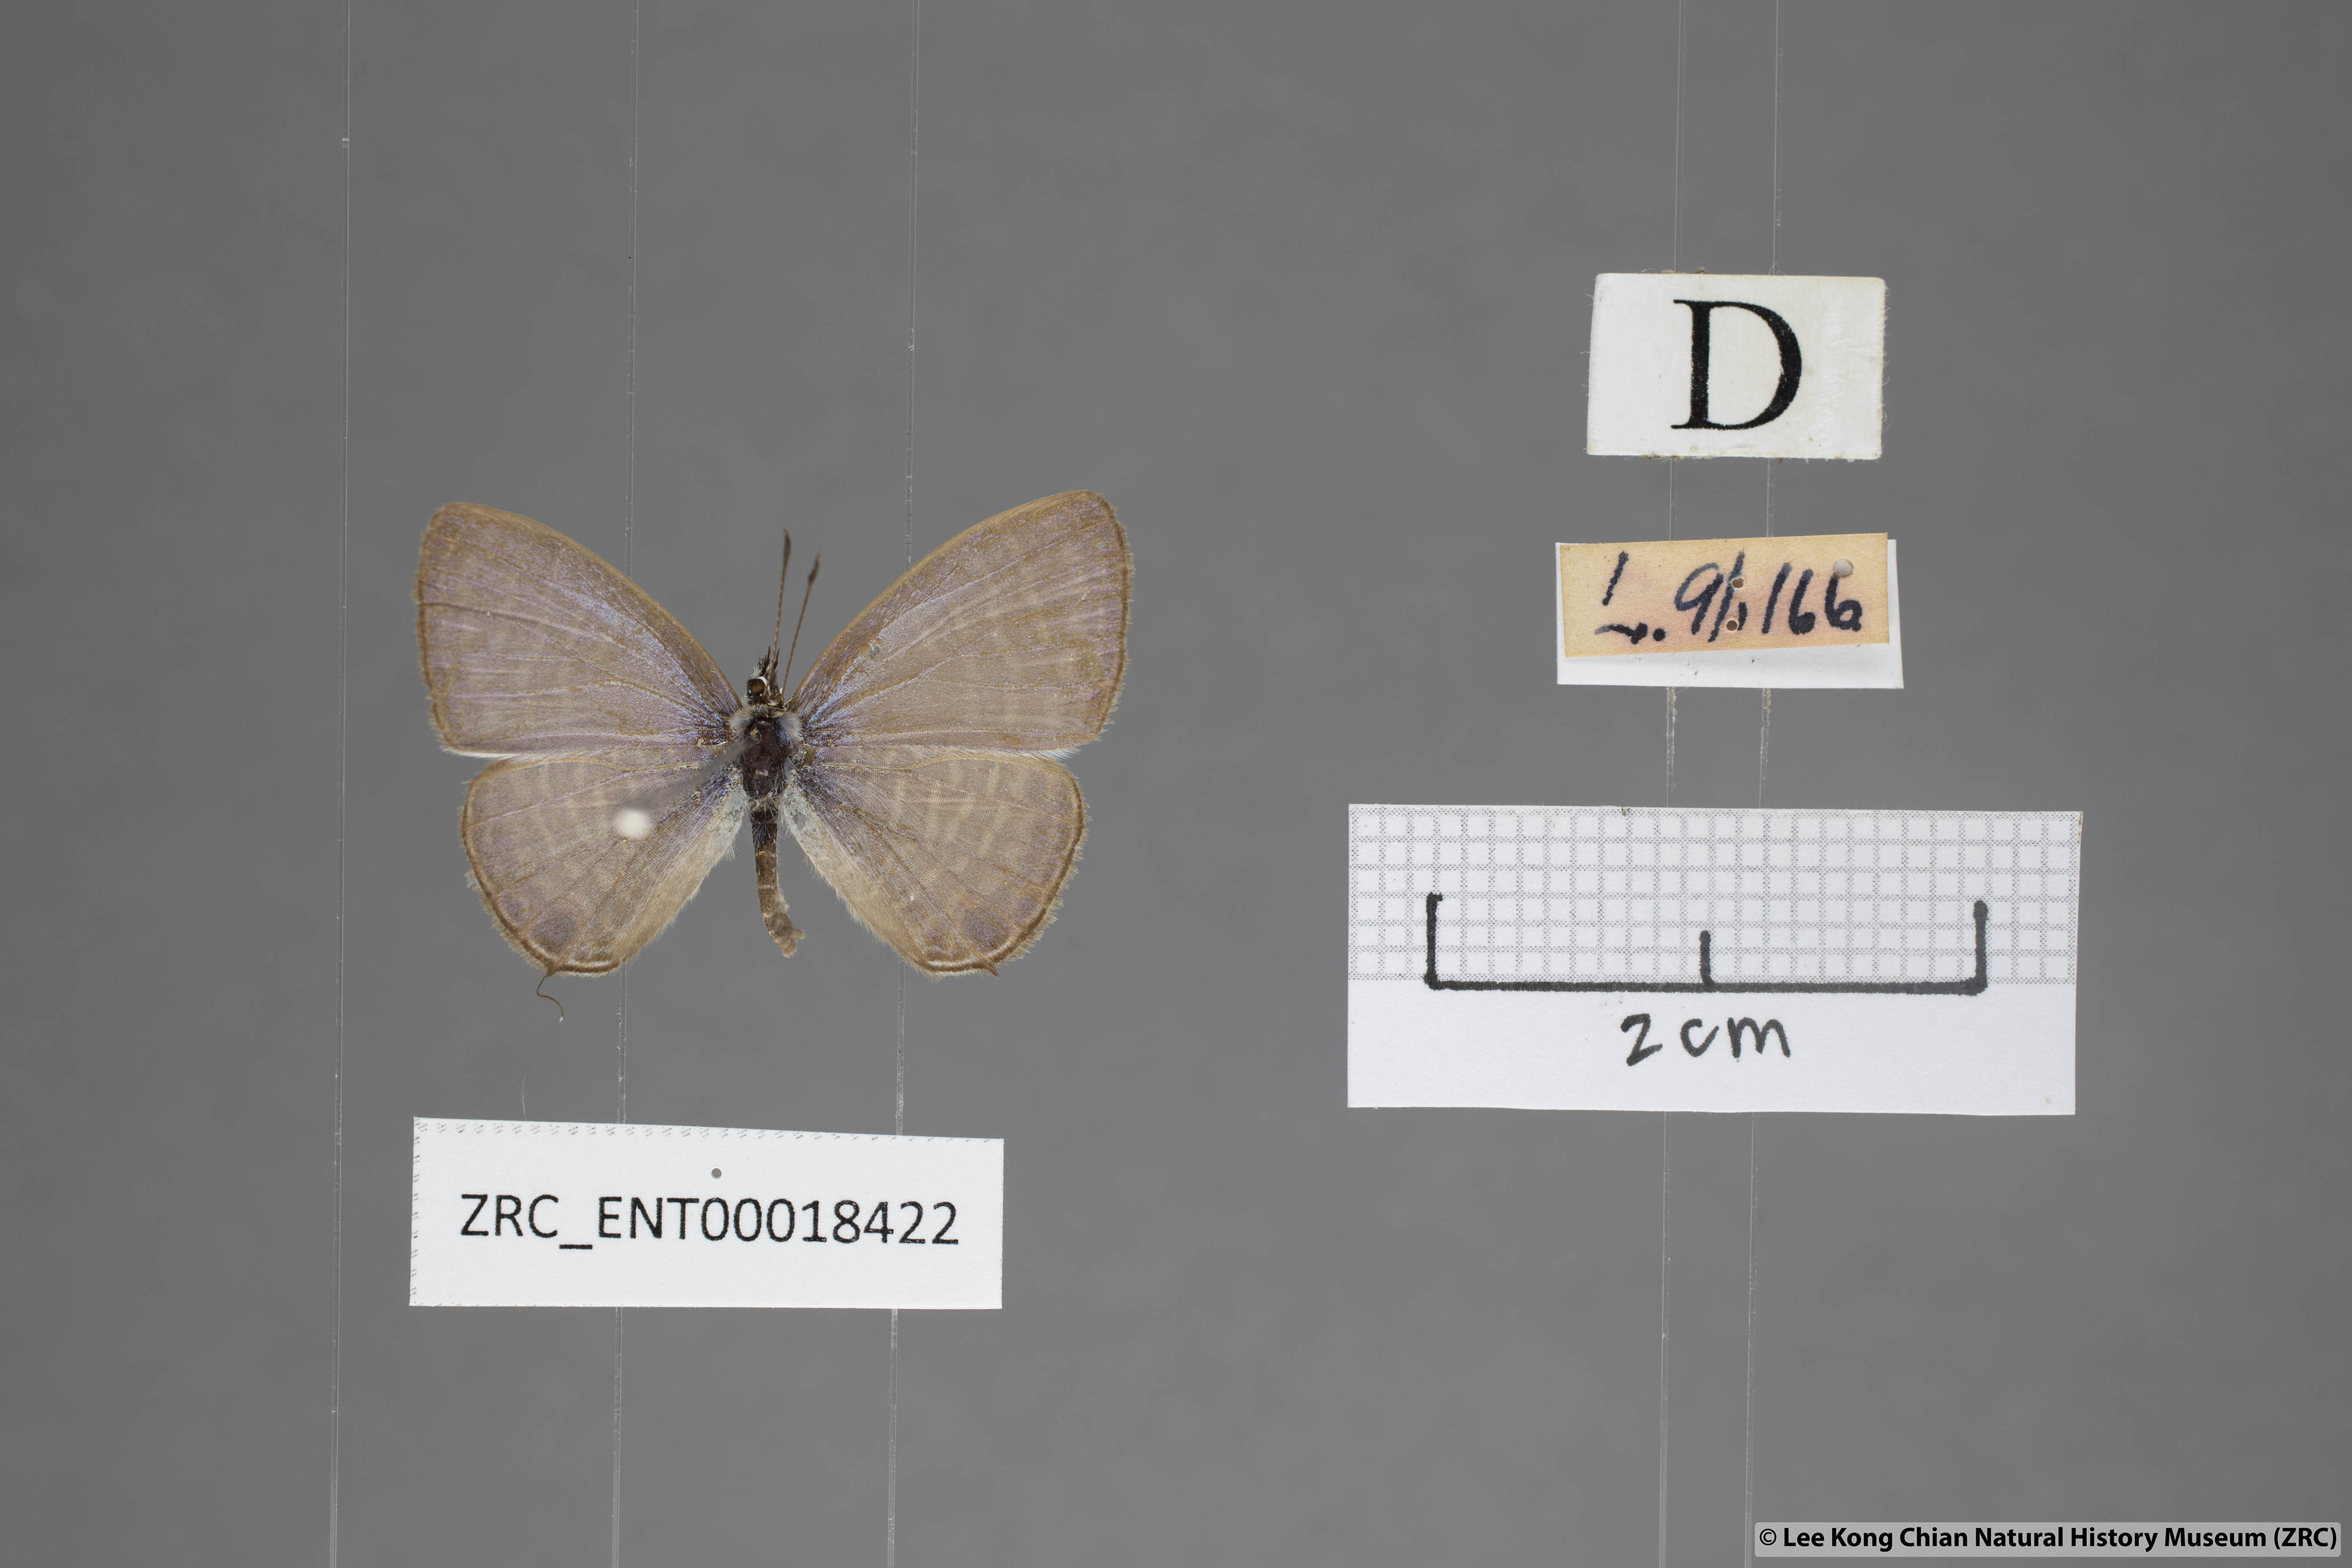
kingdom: Animalia
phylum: Arthropoda
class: Insecta
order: Lepidoptera
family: Lycaenidae
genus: Nacaduba
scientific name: Nacaduba pavana
